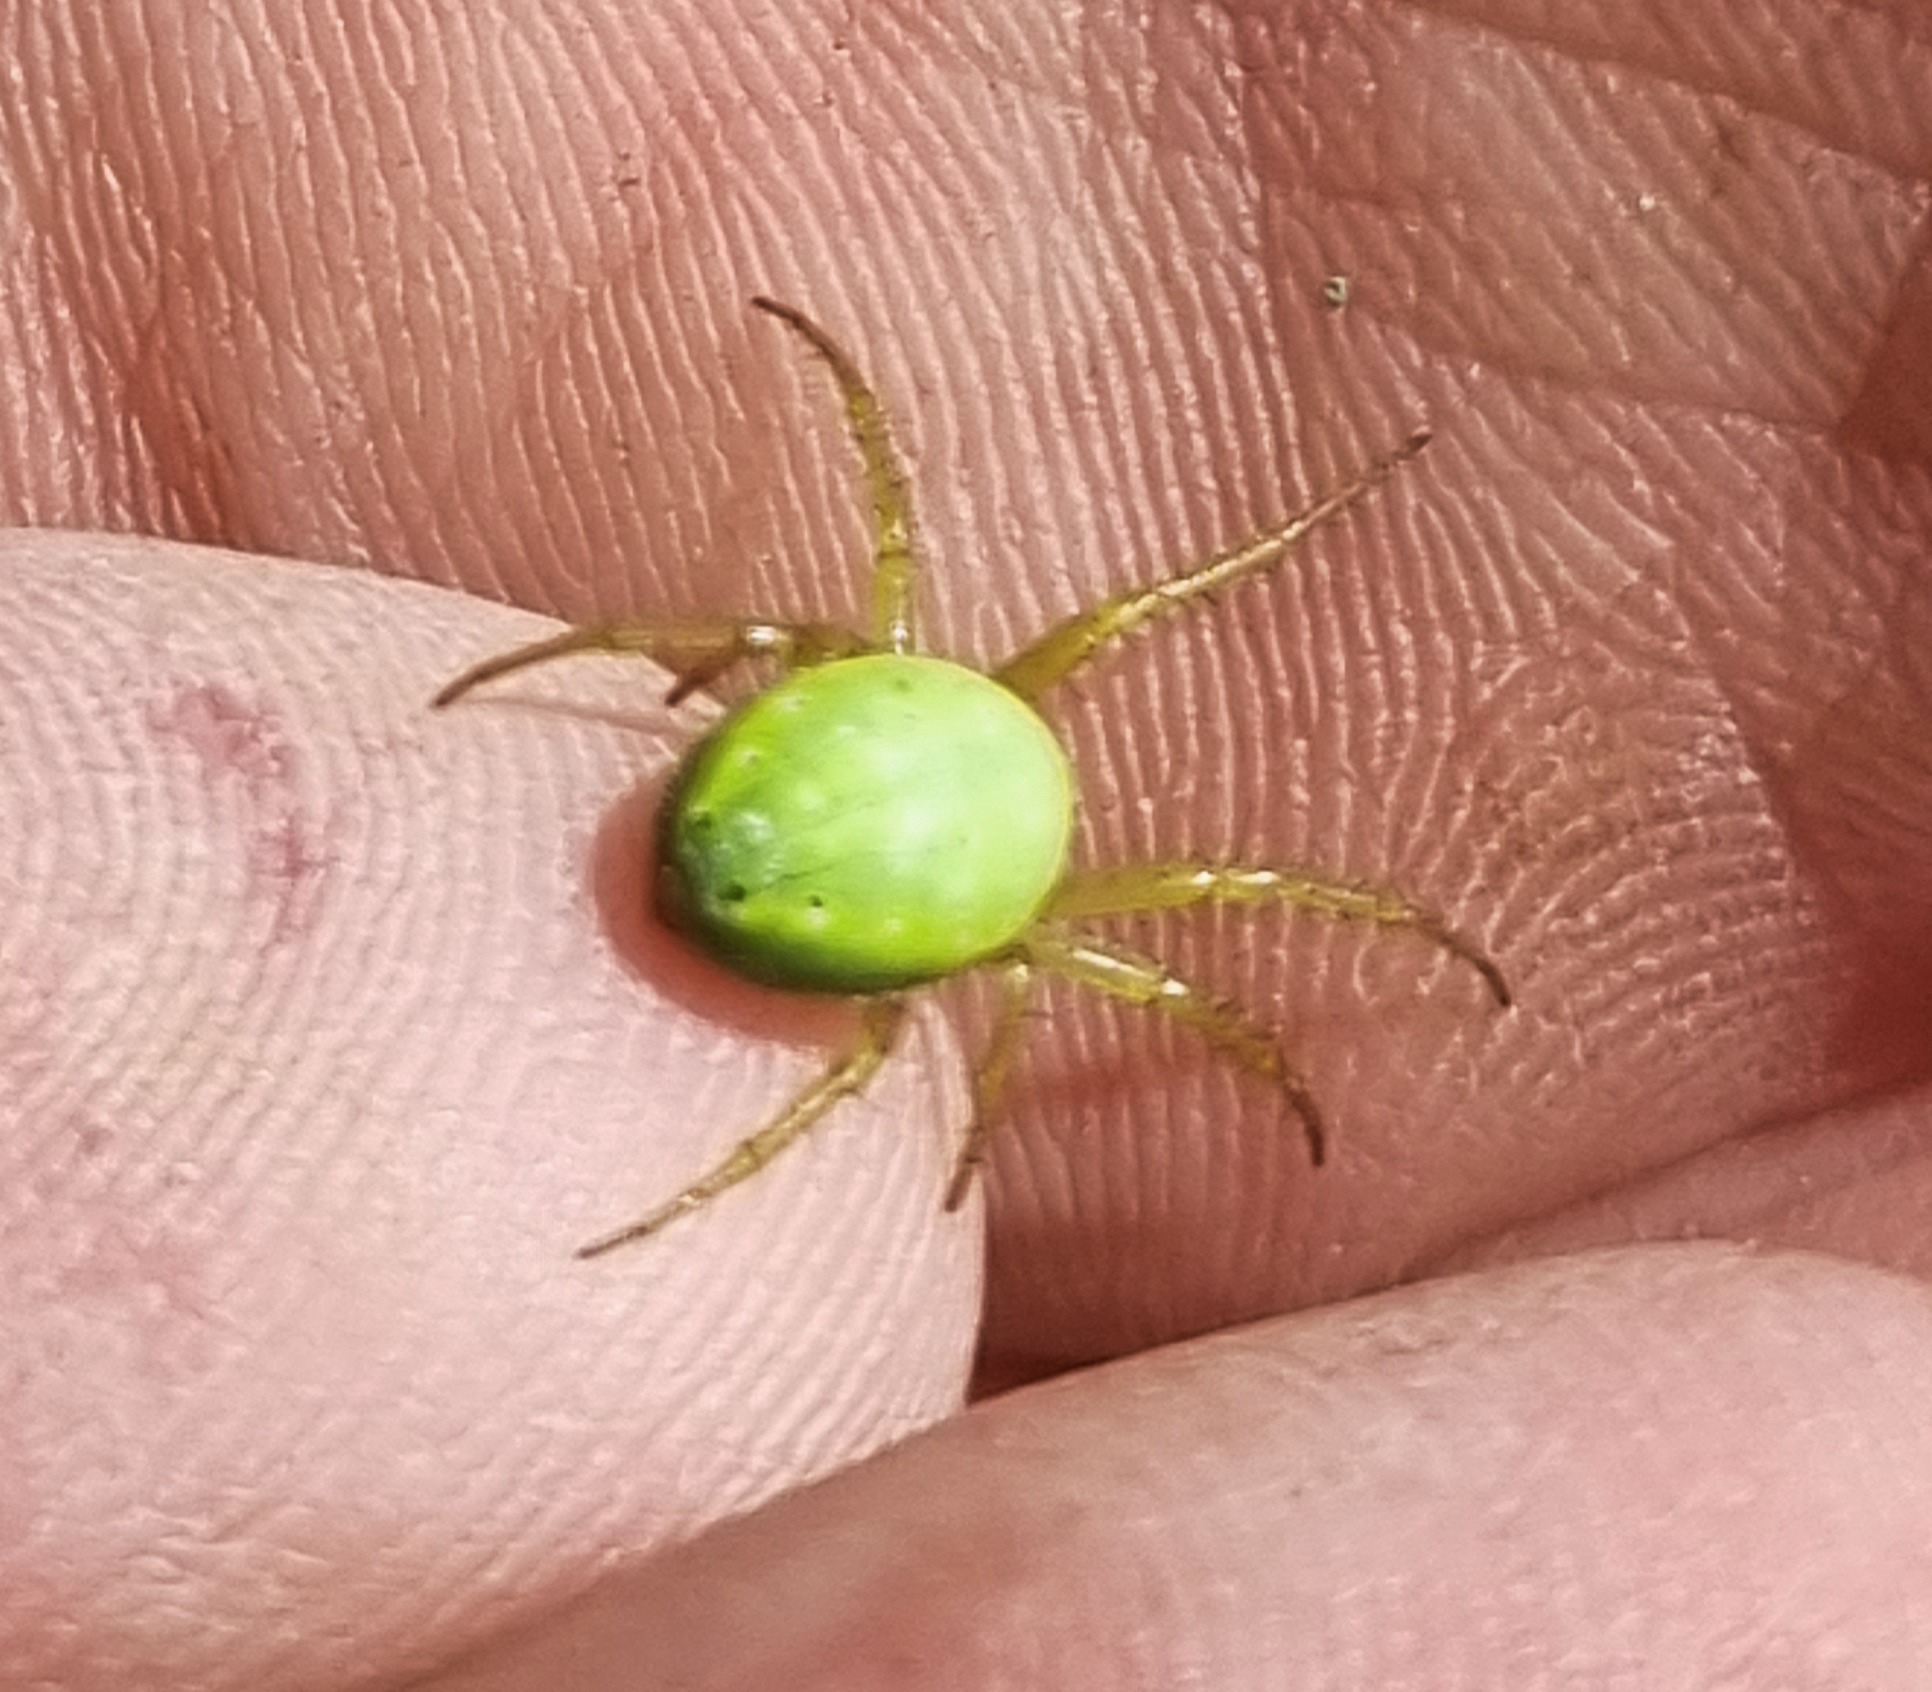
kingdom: Animalia
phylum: Arthropoda
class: Arachnida
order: Araneae
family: Araneidae
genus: Araniella
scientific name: Araniella
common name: Agurkeedderkopslægten
